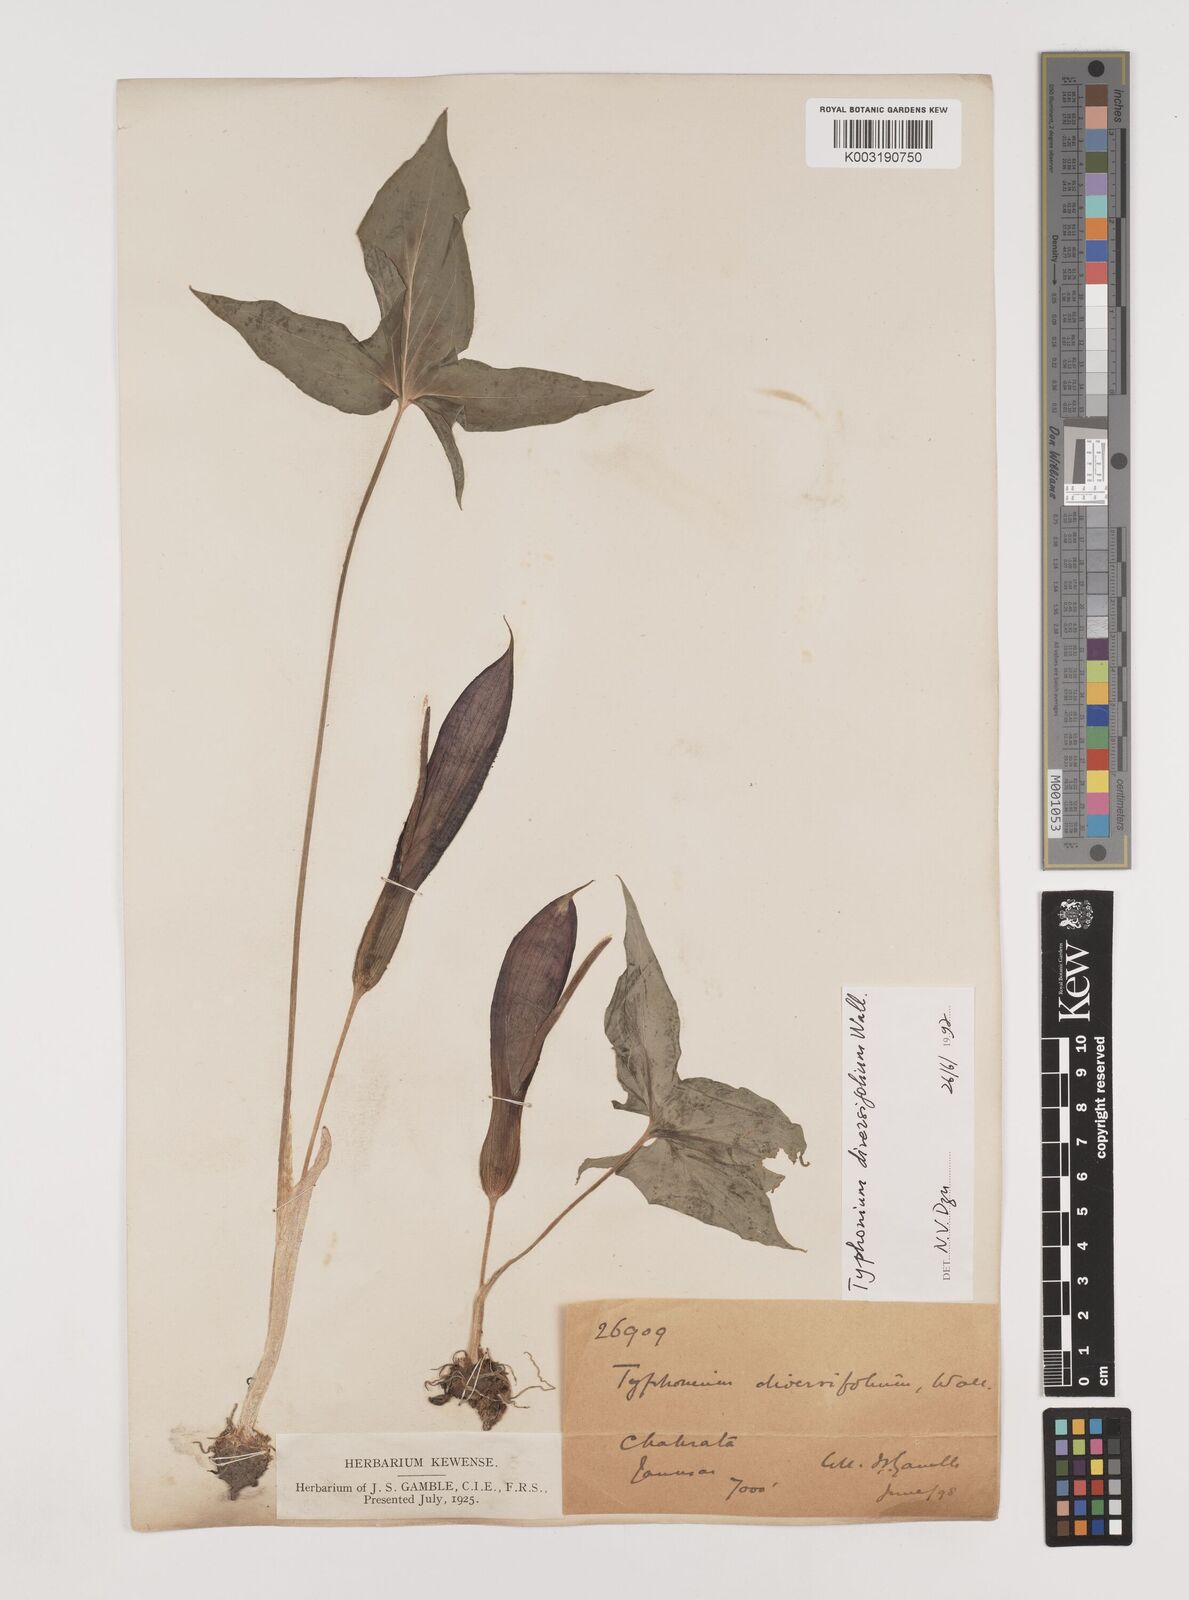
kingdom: Plantae
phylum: Tracheophyta
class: Liliopsida
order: Alismatales
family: Araceae
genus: Sauromatum
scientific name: Sauromatum diversifolium
